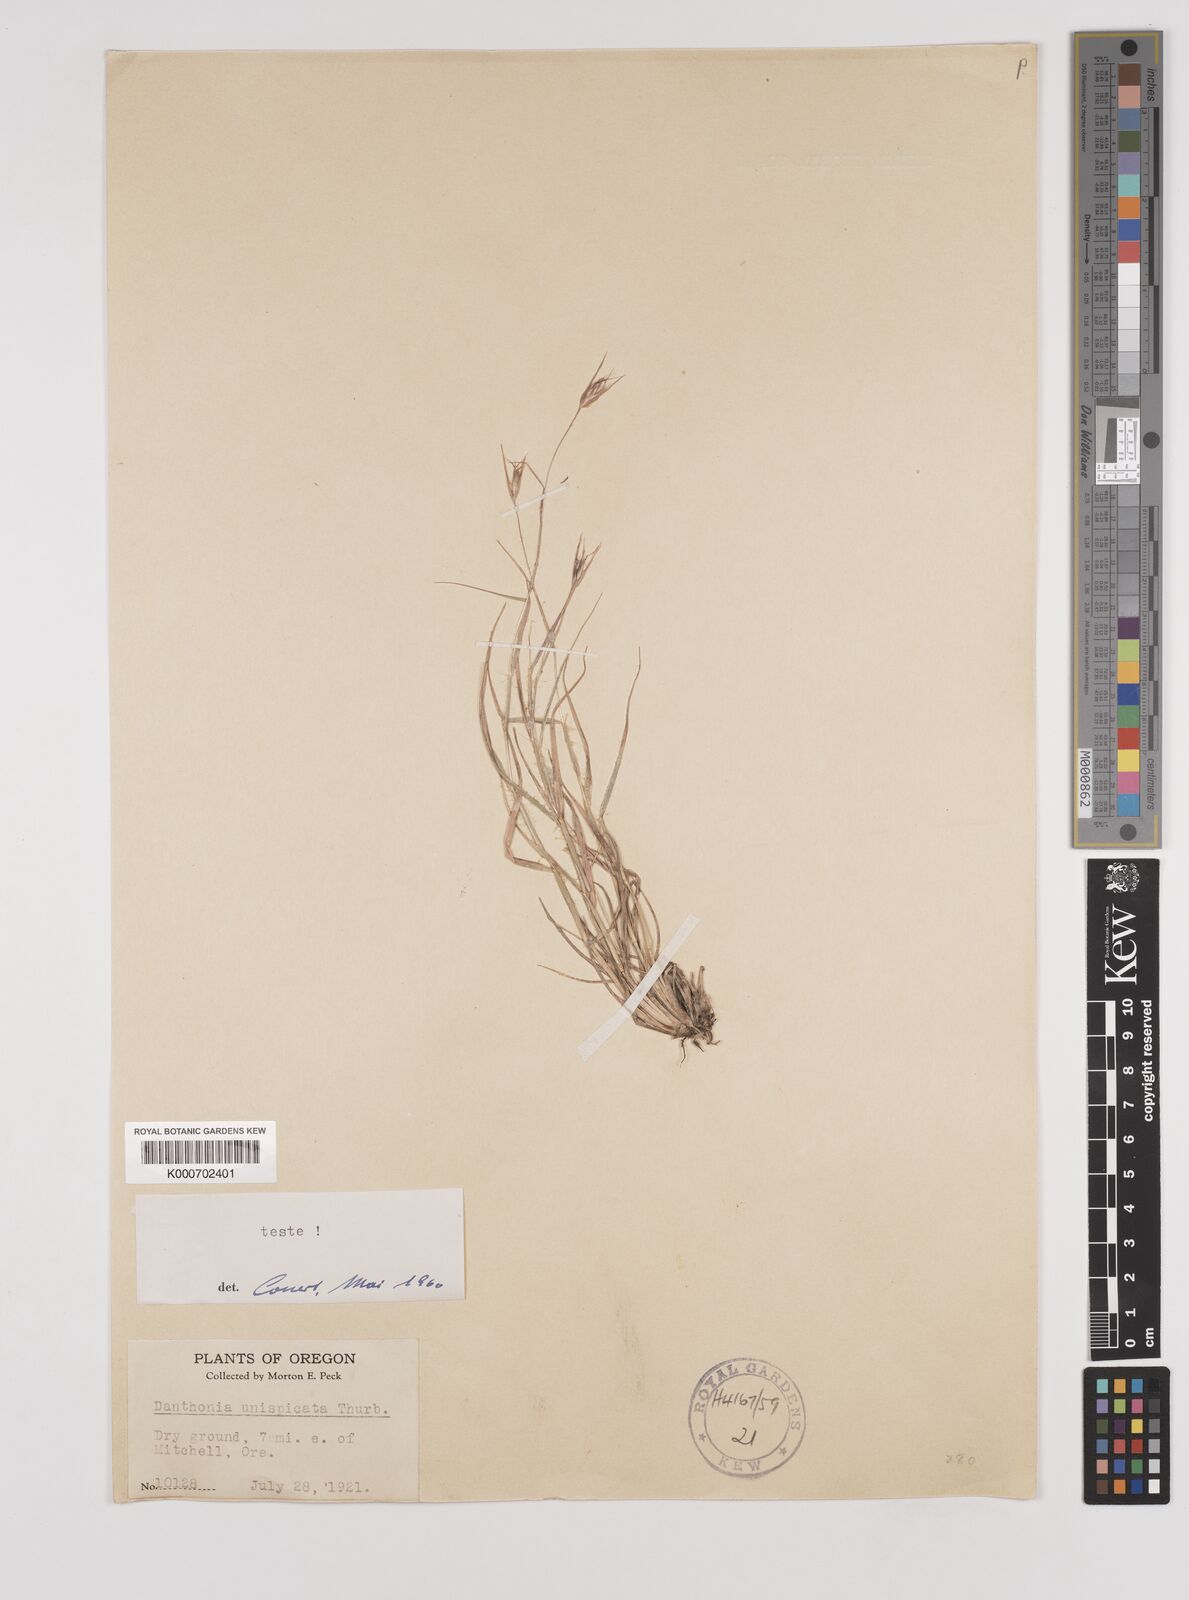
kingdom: Plantae
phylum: Tracheophyta
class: Liliopsida
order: Poales
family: Poaceae
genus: Danthonia
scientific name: Danthonia unispicata
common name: Few-flowered oatgrass
